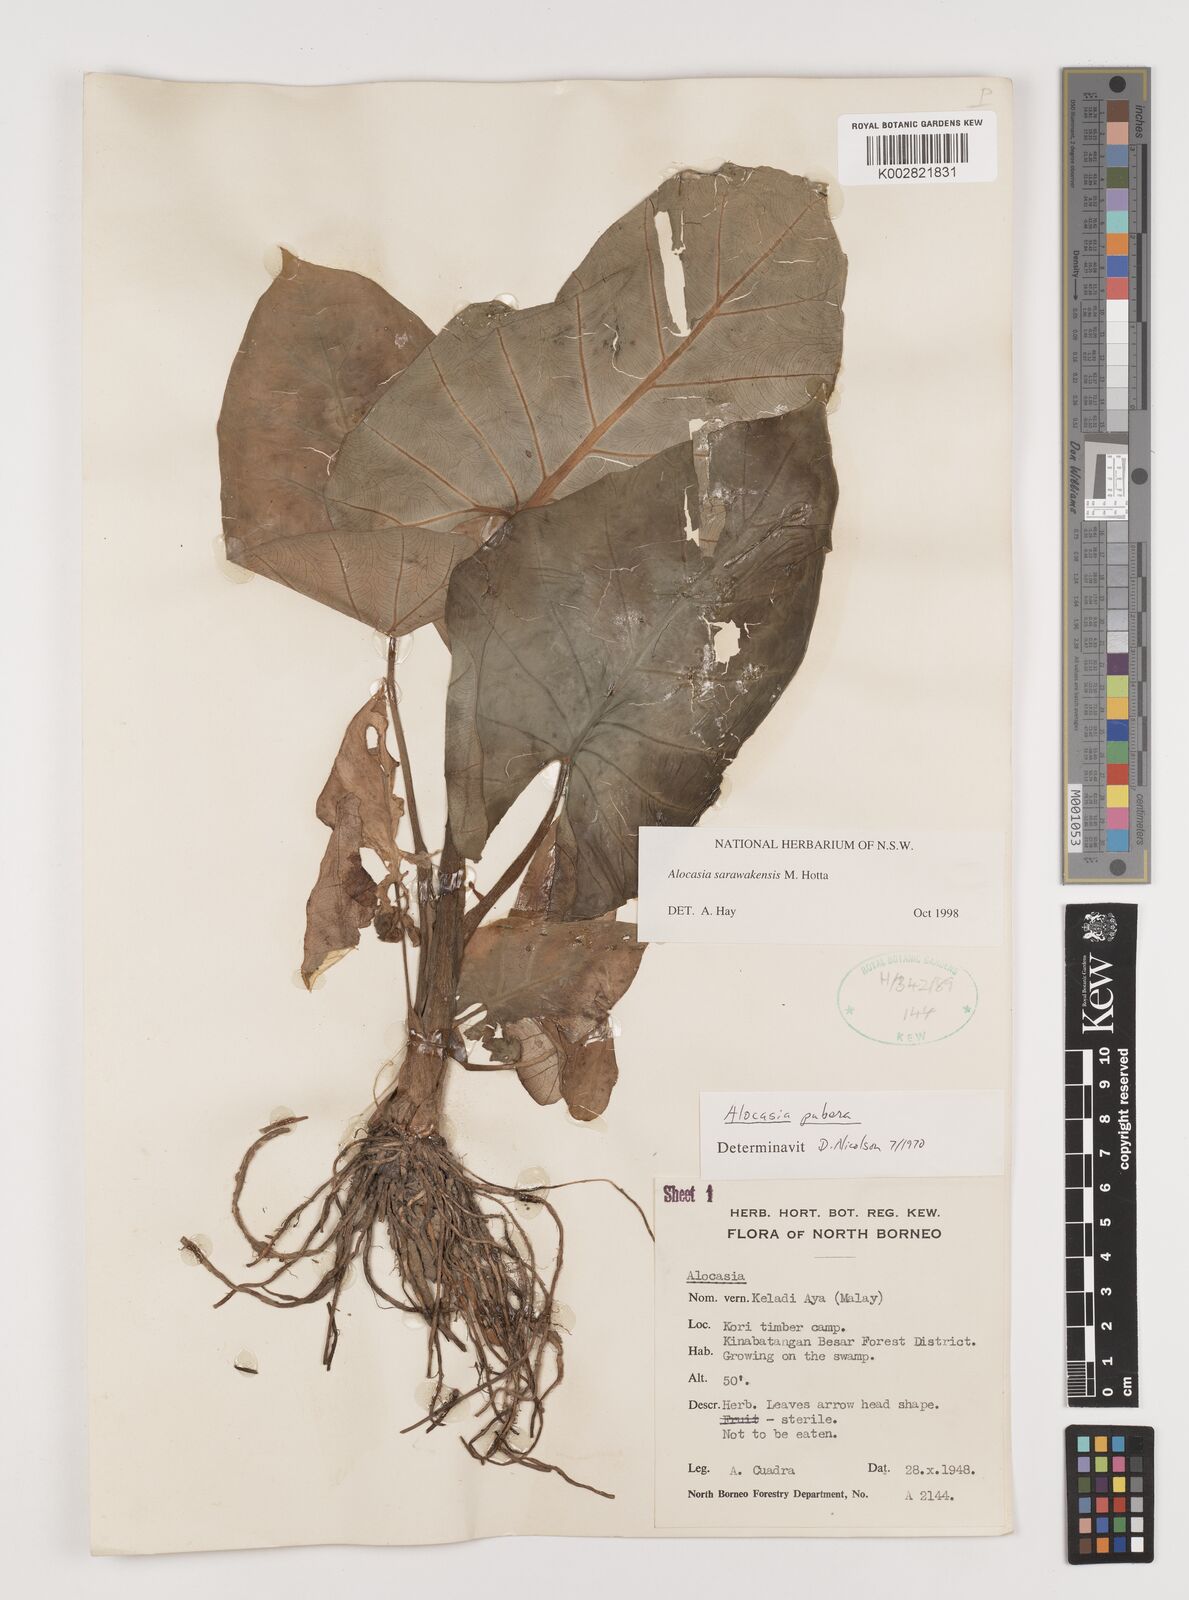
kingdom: Plantae
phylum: Tracheophyta
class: Liliopsida
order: Alismatales
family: Araceae
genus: Alocasia
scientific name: Alocasia sarawakensis
